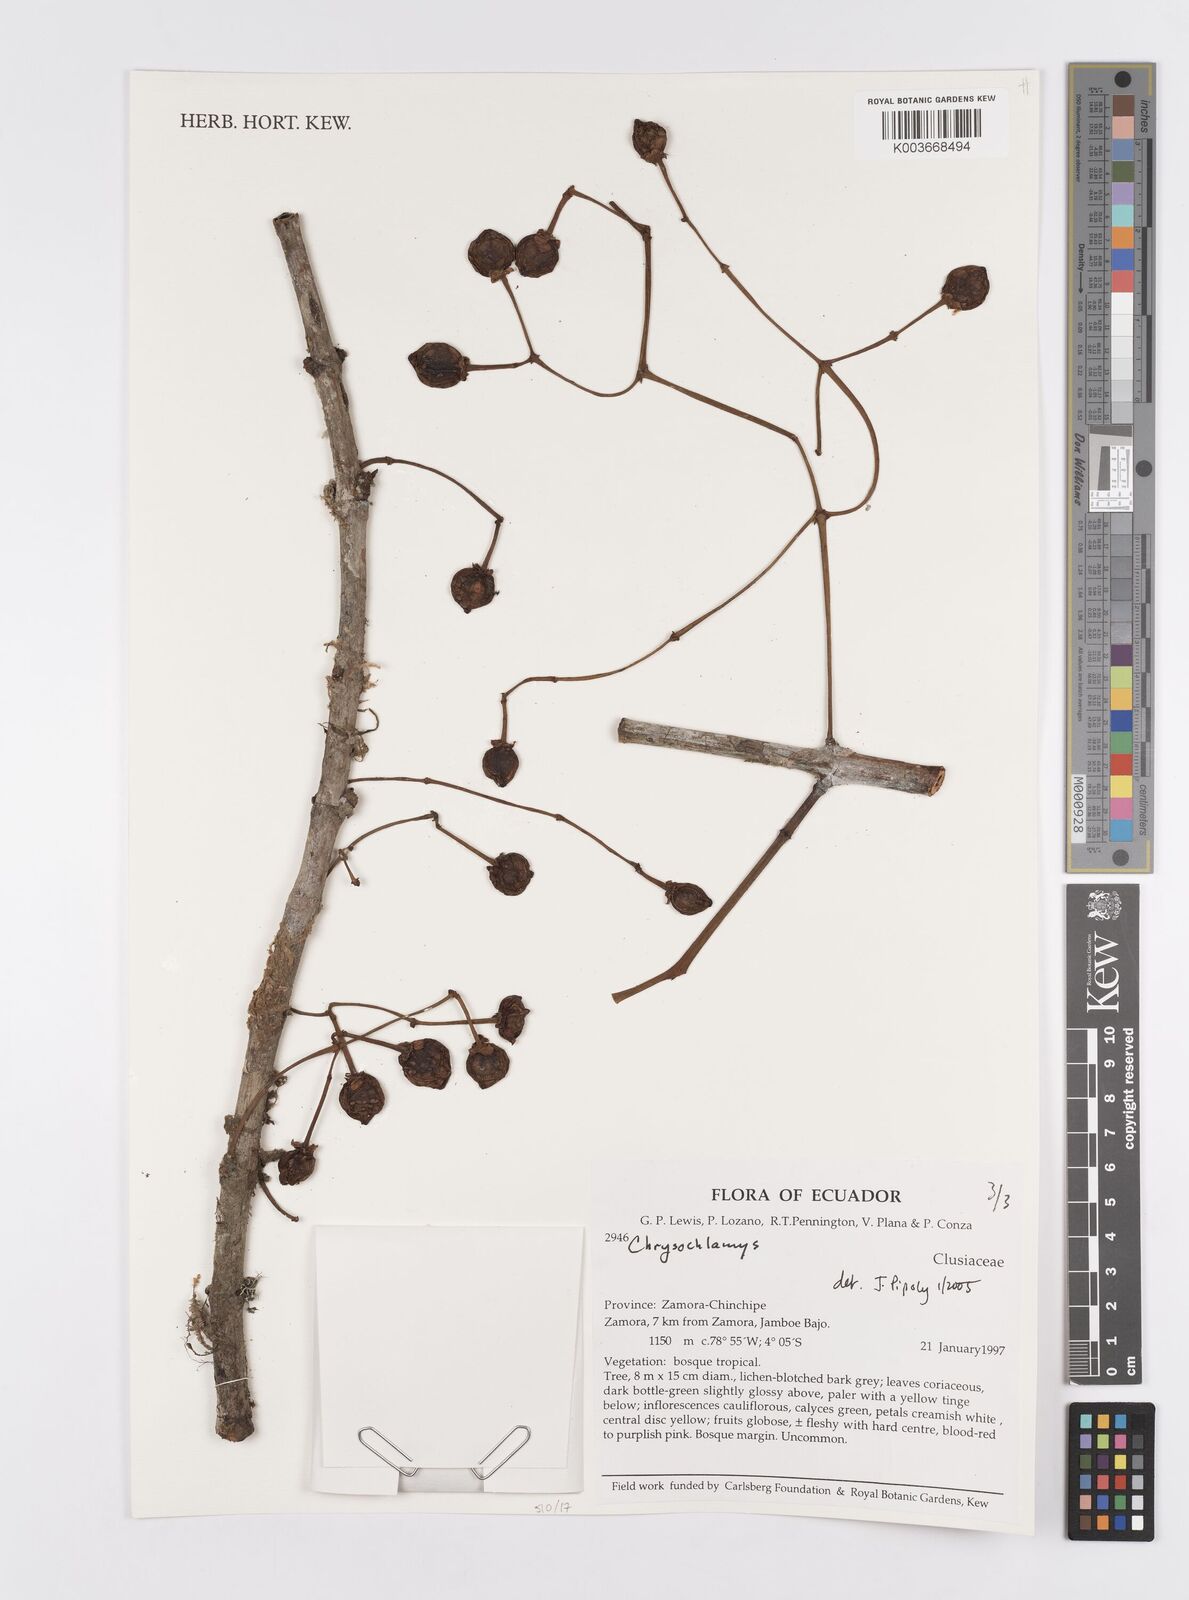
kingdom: Plantae
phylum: Tracheophyta
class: Magnoliopsida
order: Malpighiales
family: Clusiaceae
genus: Chrysochlamys
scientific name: Chrysochlamys
